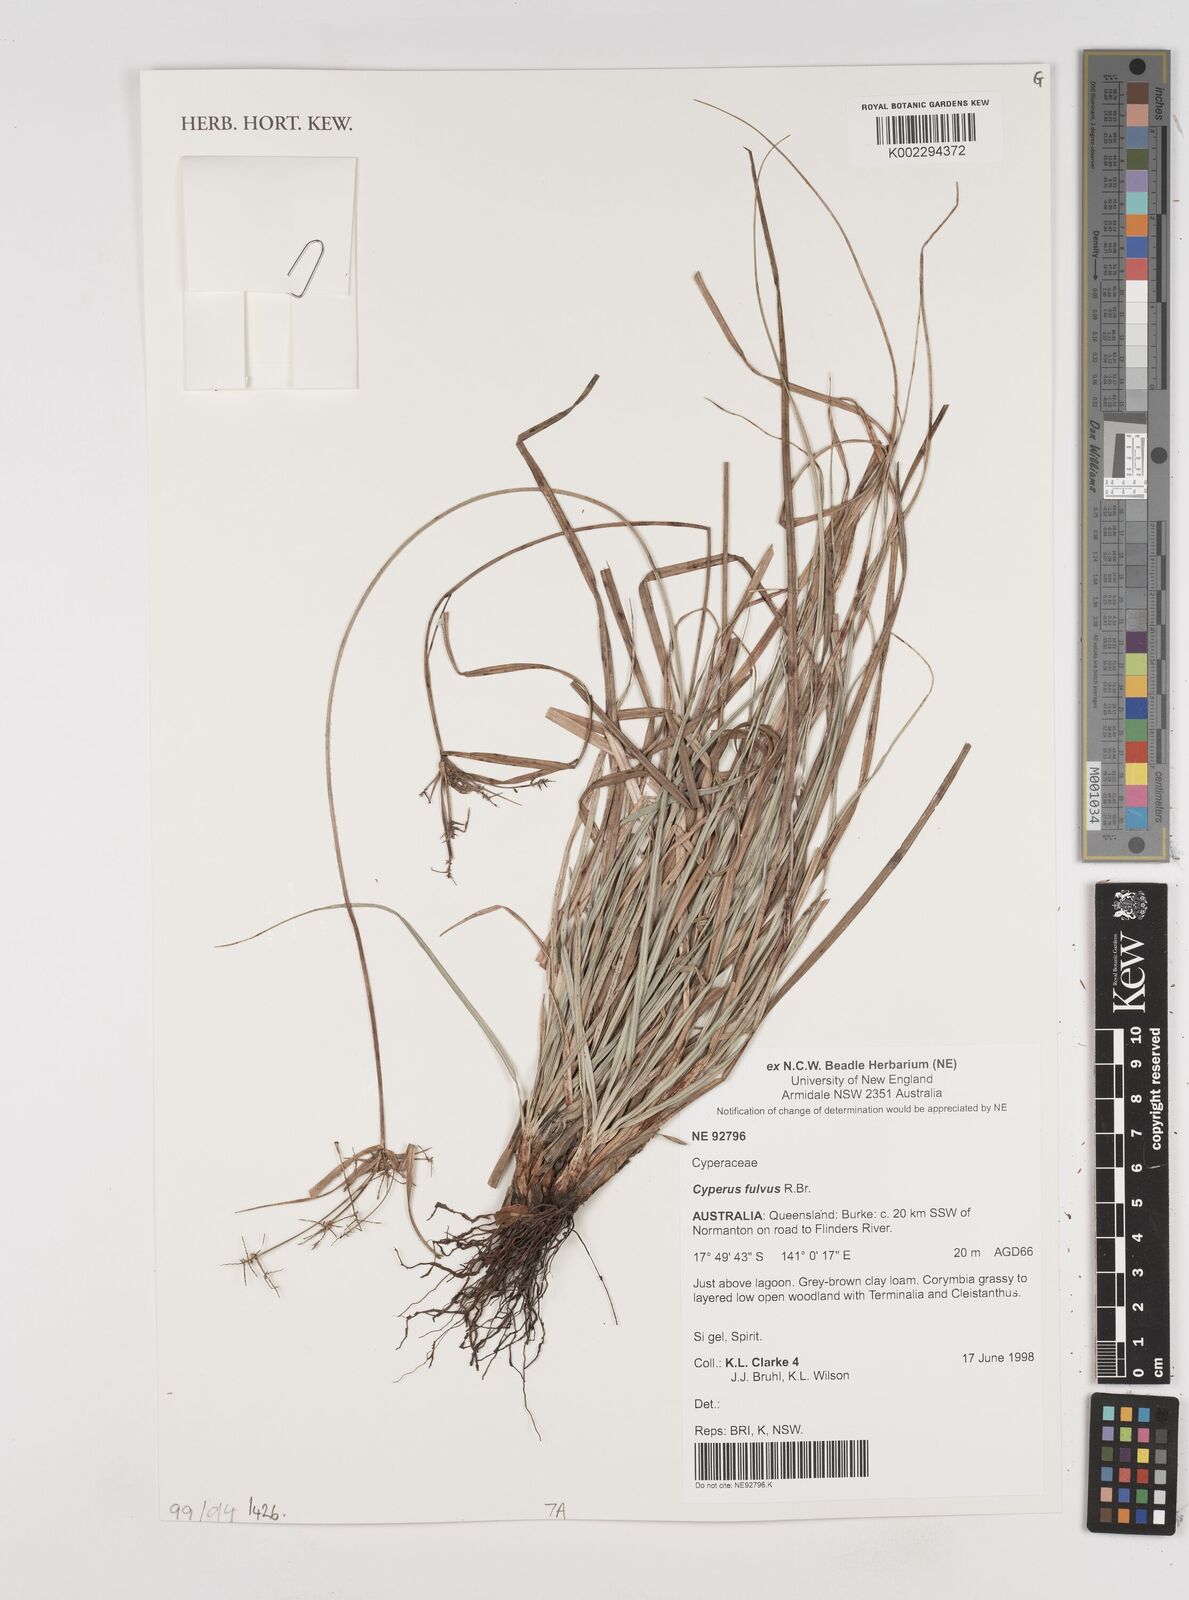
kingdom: Plantae
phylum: Tracheophyta
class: Liliopsida
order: Poales
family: Cyperaceae
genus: Cyperus
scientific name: Cyperus fulvus
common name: Sticky sedge
